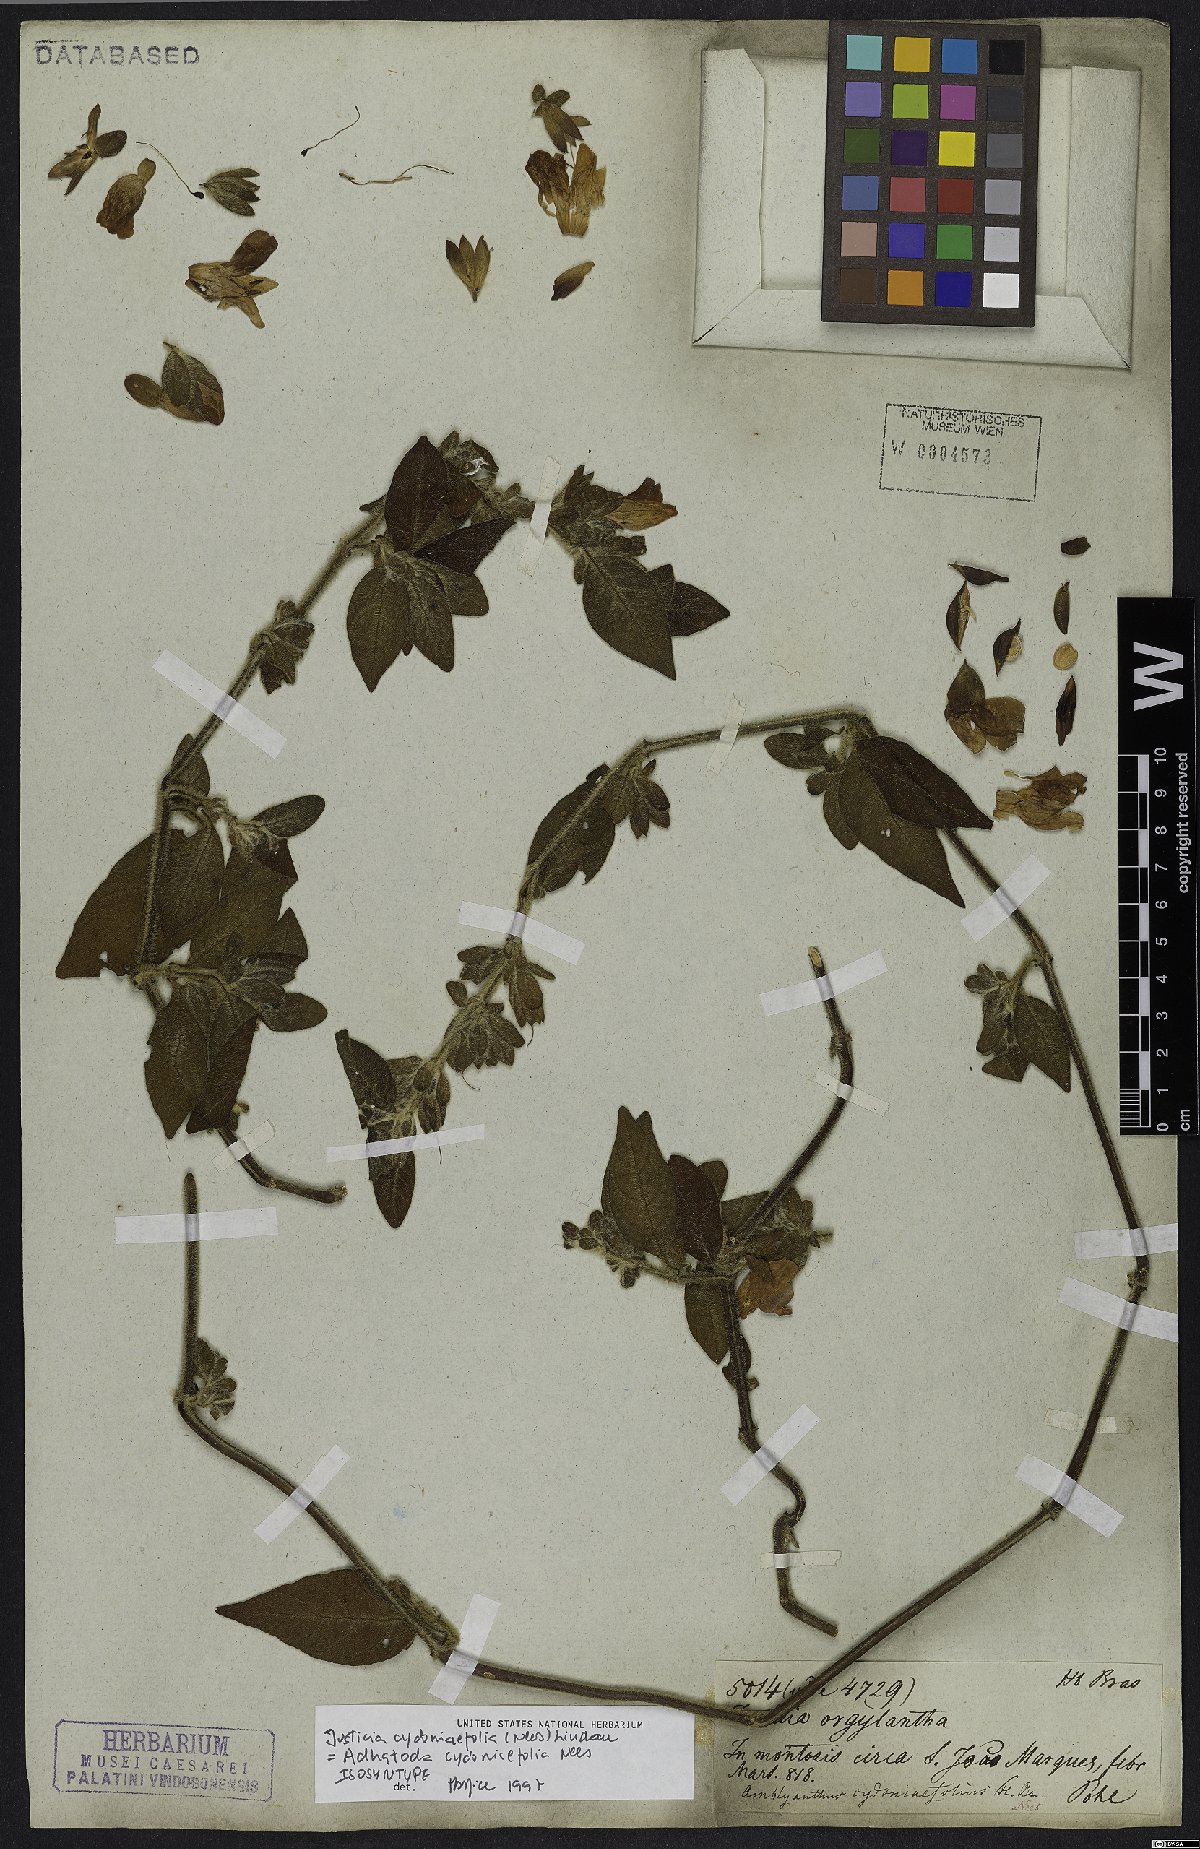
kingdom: Plantae
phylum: Tracheophyta
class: Magnoliopsida
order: Lamiales
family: Acanthaceae
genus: Justicia
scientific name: Justicia cydoniifolia
